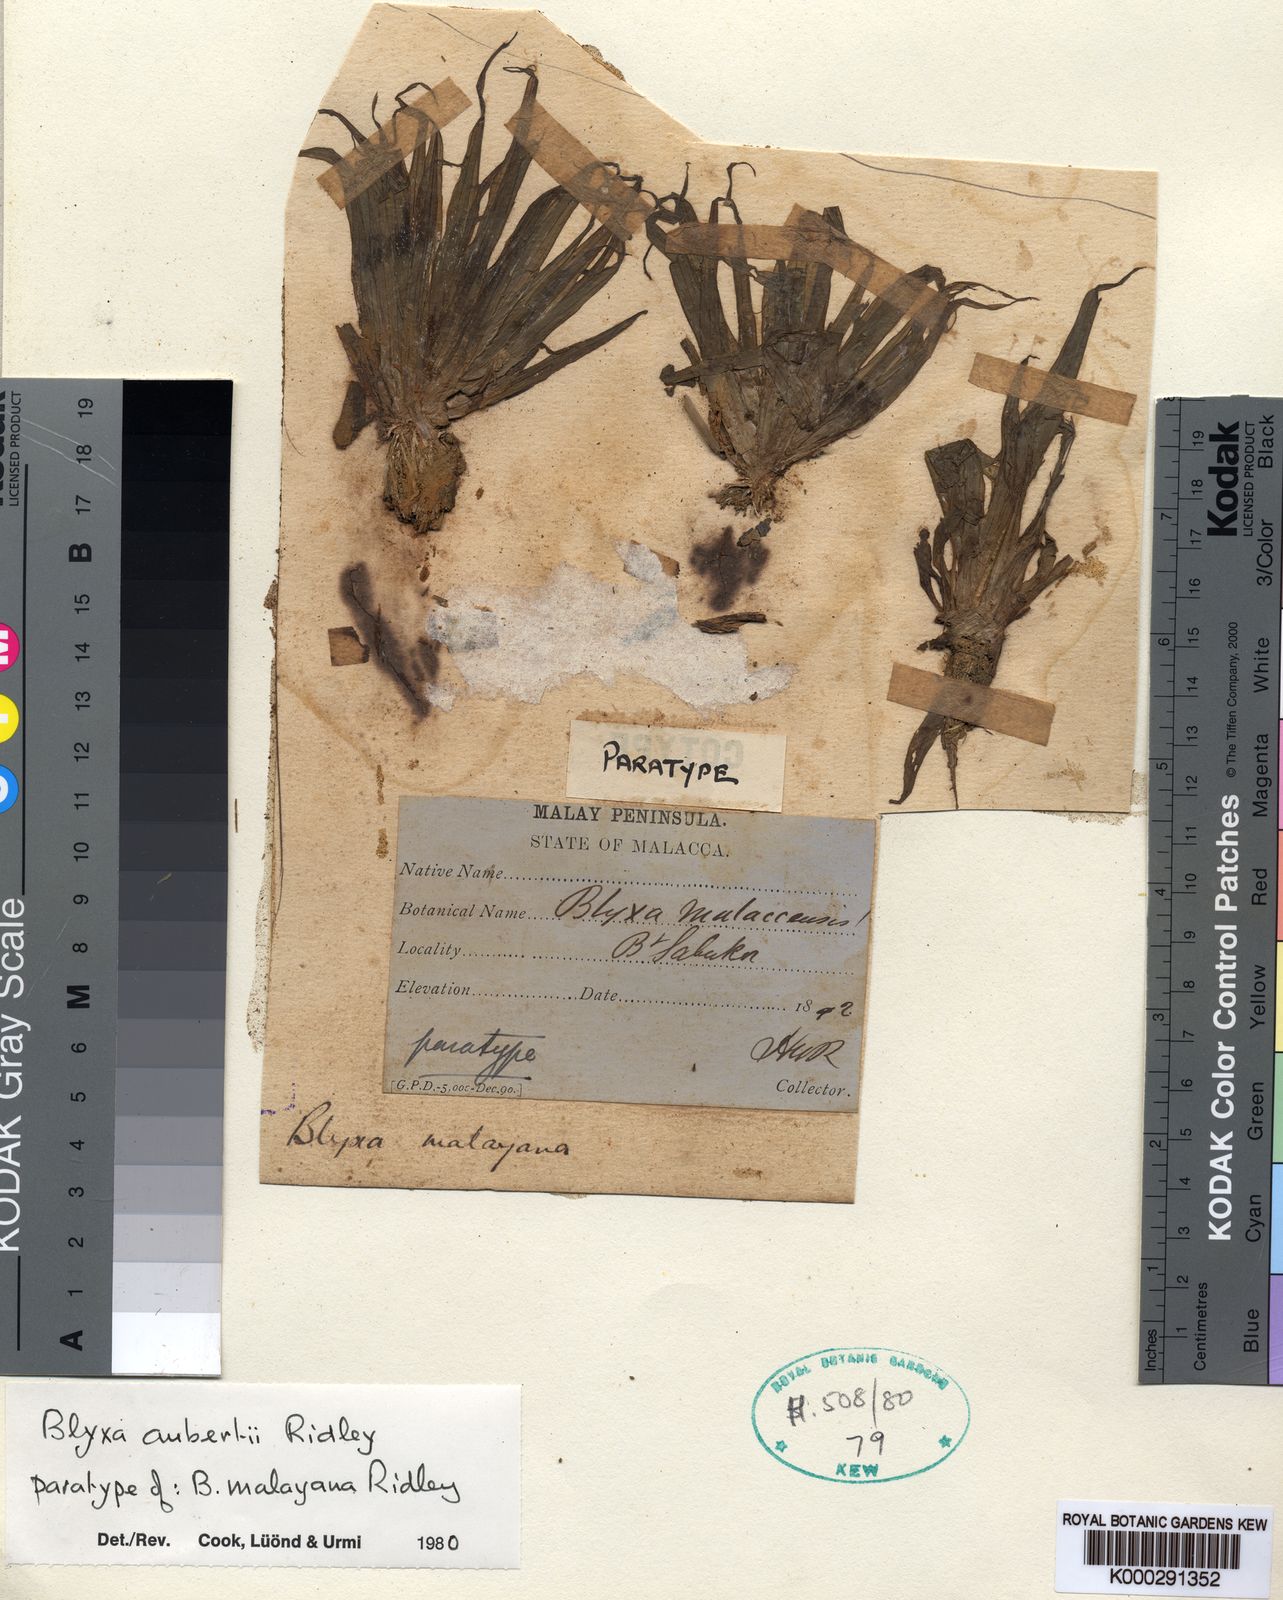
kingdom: Plantae
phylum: Tracheophyta
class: Liliopsida
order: Alismatales
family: Hydrocharitaceae
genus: Blyxa
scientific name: Blyxa aubertii
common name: Roundfruit blyxa
